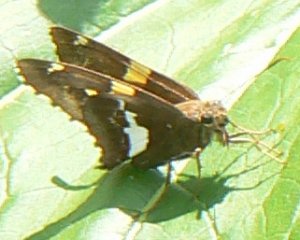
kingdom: Animalia
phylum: Arthropoda
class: Insecta
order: Lepidoptera
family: Hesperiidae
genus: Epargyreus
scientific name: Epargyreus clarus
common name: Silver-spotted Skipper
